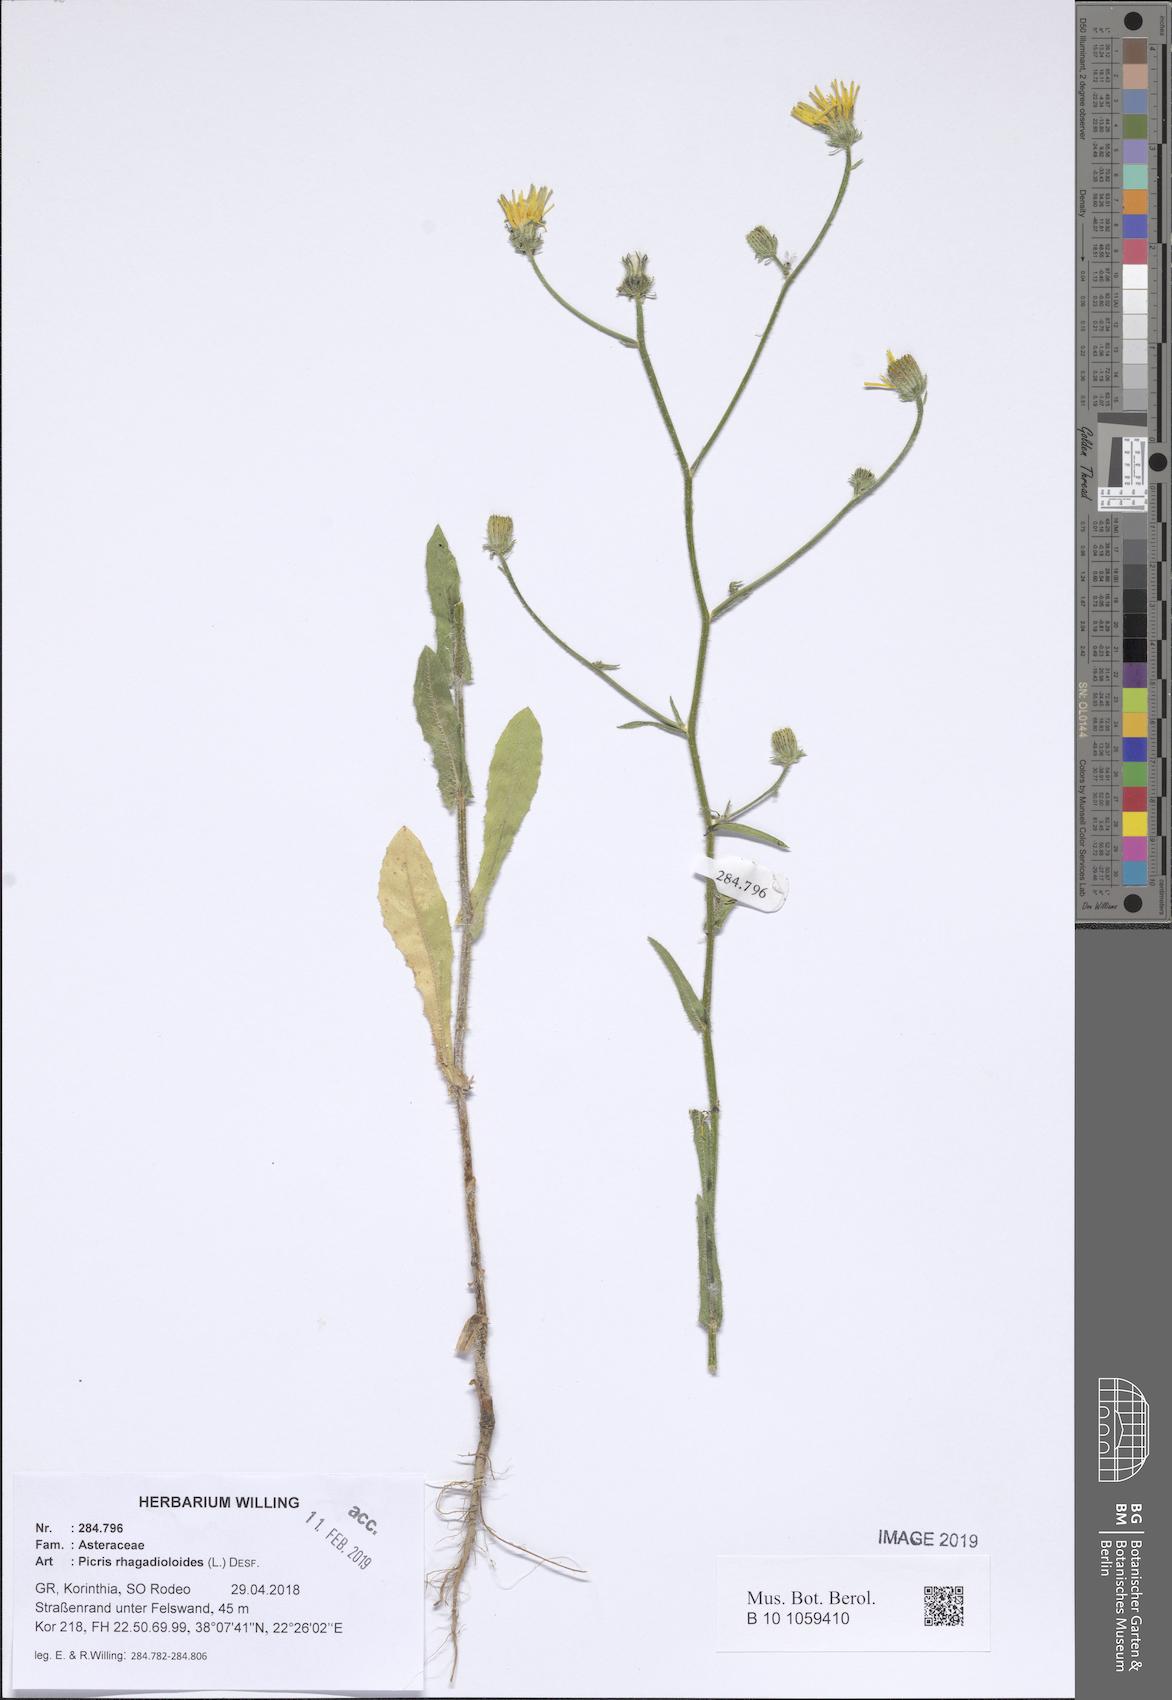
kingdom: Plantae
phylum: Tracheophyta
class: Magnoliopsida
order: Asterales
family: Asteraceae
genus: Picris
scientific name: Picris rhagadioloides
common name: Oxtongue
